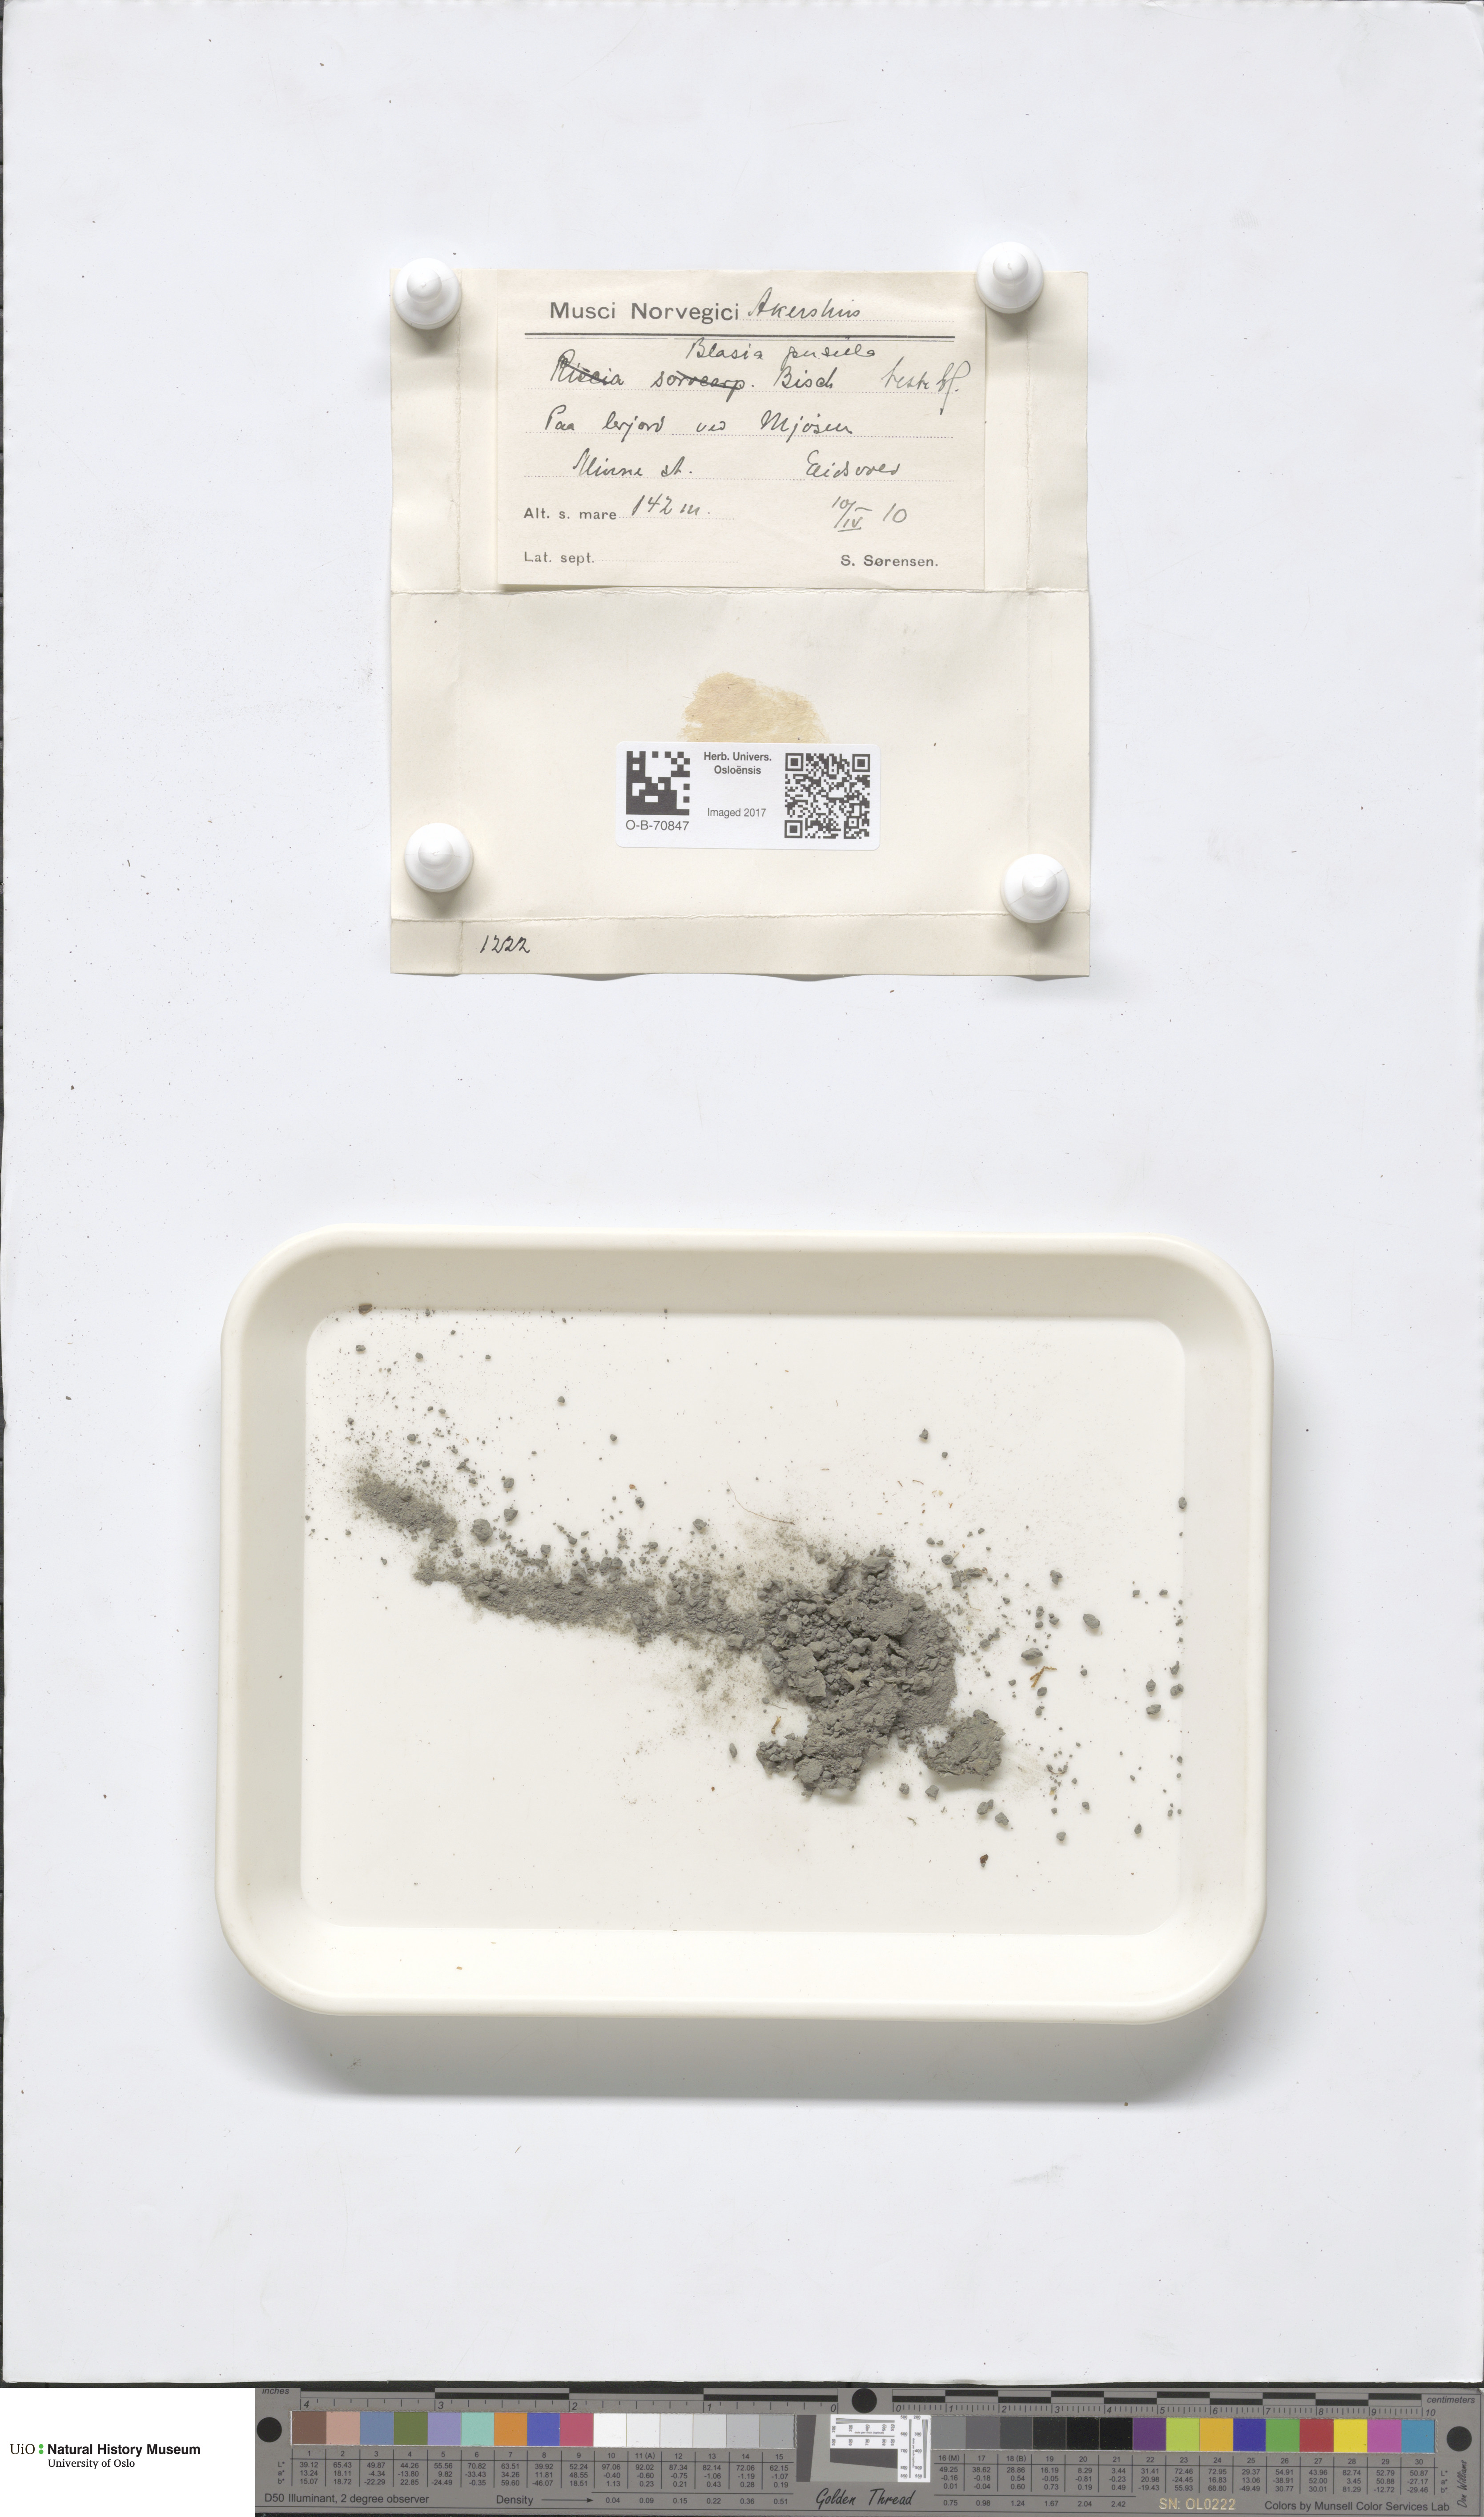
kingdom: Plantae
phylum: Marchantiophyta
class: Marchantiopsida
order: Blasiales
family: Blasiaceae
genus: Blasia
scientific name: Blasia pusilla
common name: Common kettlewort
